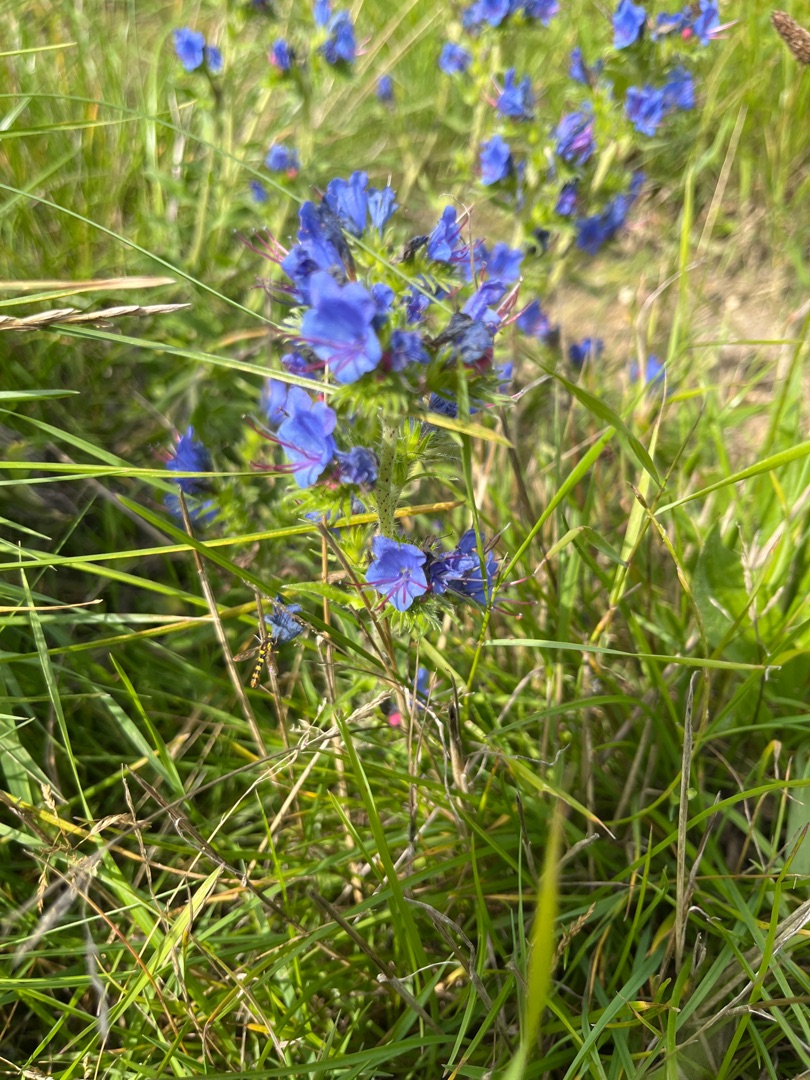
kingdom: Plantae
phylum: Tracheophyta
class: Magnoliopsida
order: Boraginales
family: Boraginaceae
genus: Echium
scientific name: Echium vulgare
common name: Slangehoved
